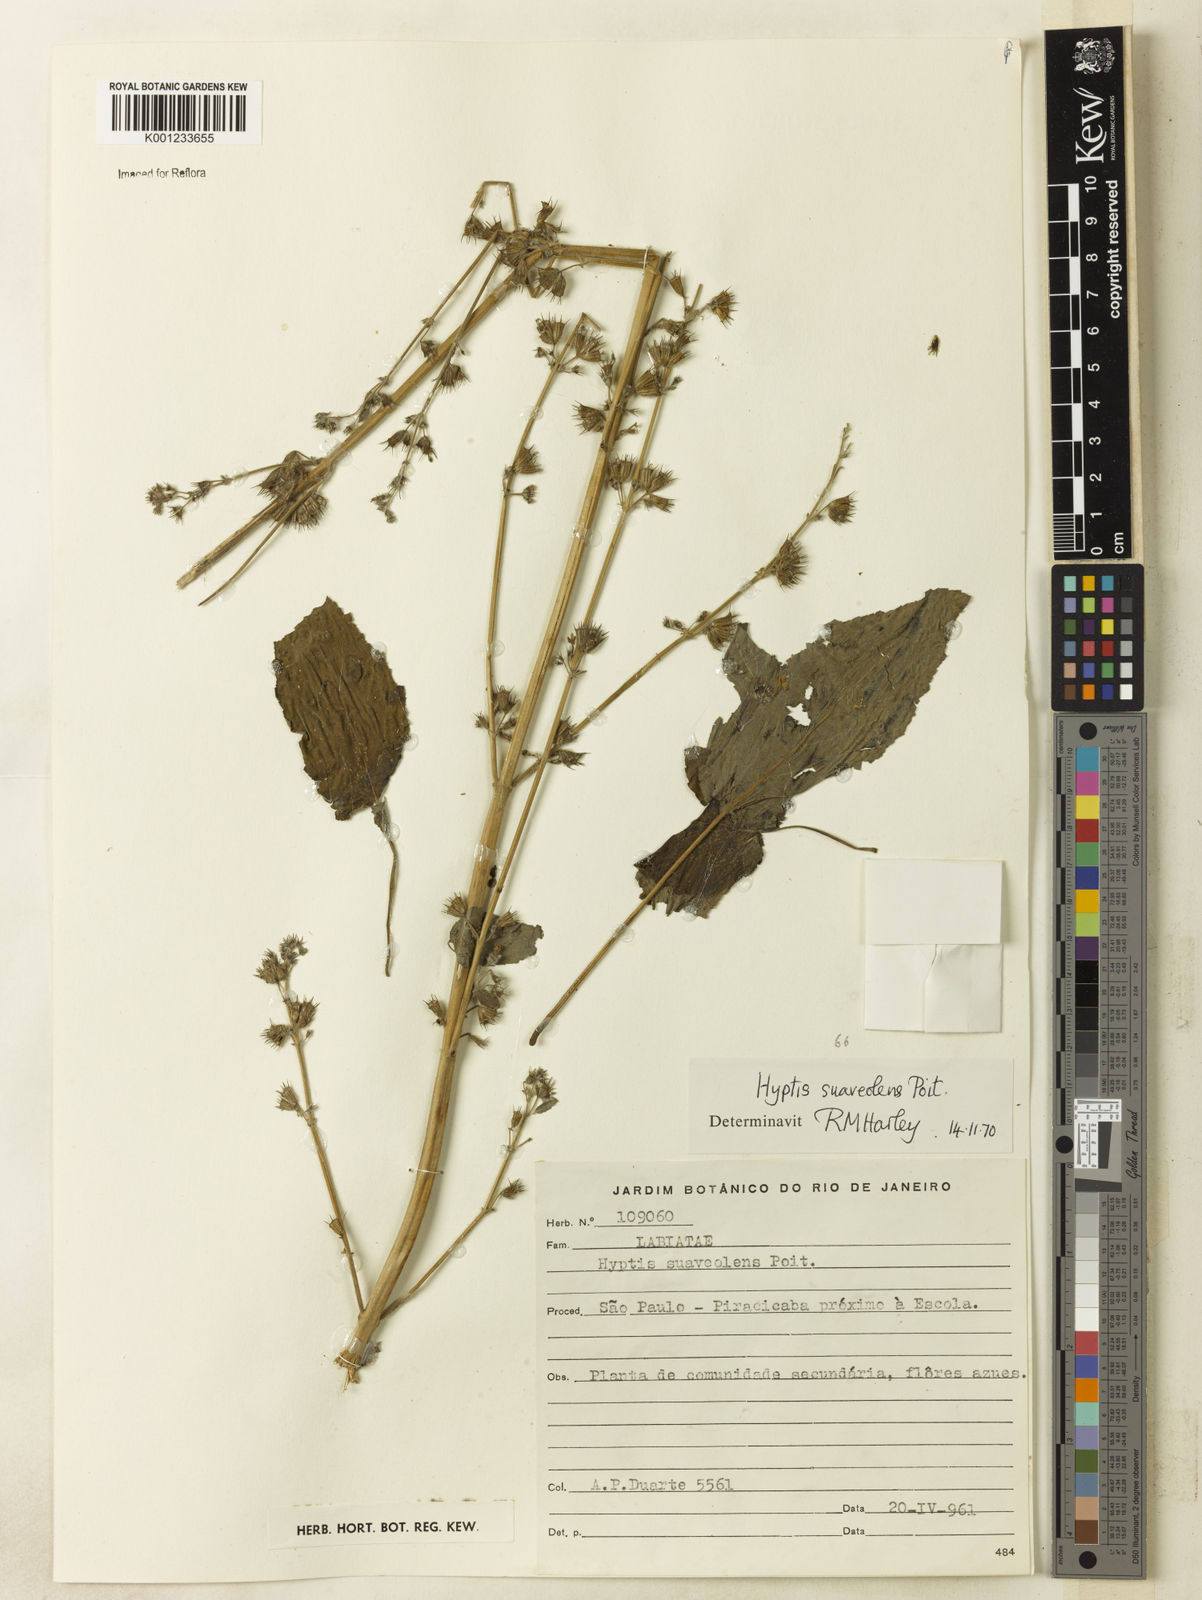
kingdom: Plantae
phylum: Tracheophyta
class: Magnoliopsida
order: Lamiales
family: Lamiaceae
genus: Mesosphaerum
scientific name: Mesosphaerum suaveolens
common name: Pignut
